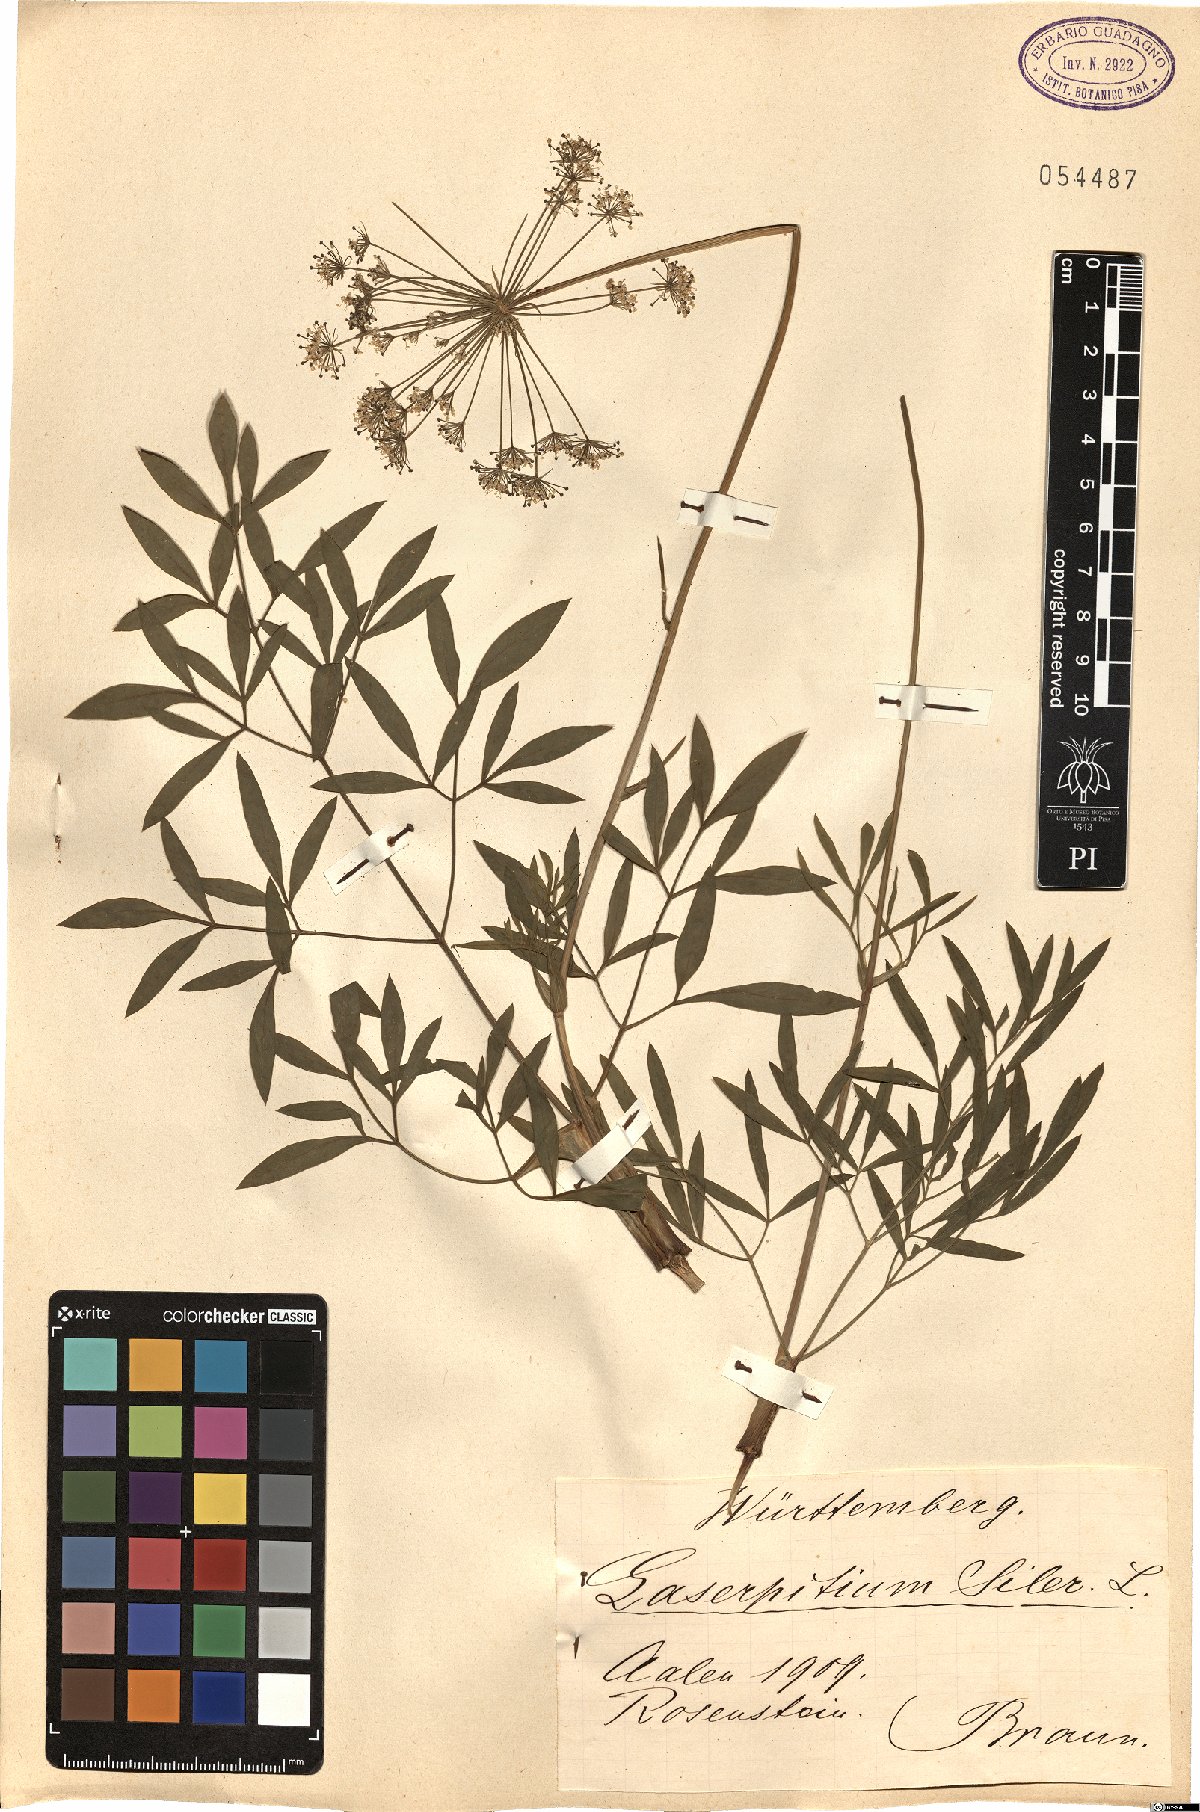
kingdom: Plantae
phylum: Tracheophyta
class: Magnoliopsida
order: Apiales
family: Apiaceae
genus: Siler
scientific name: Siler montanum
